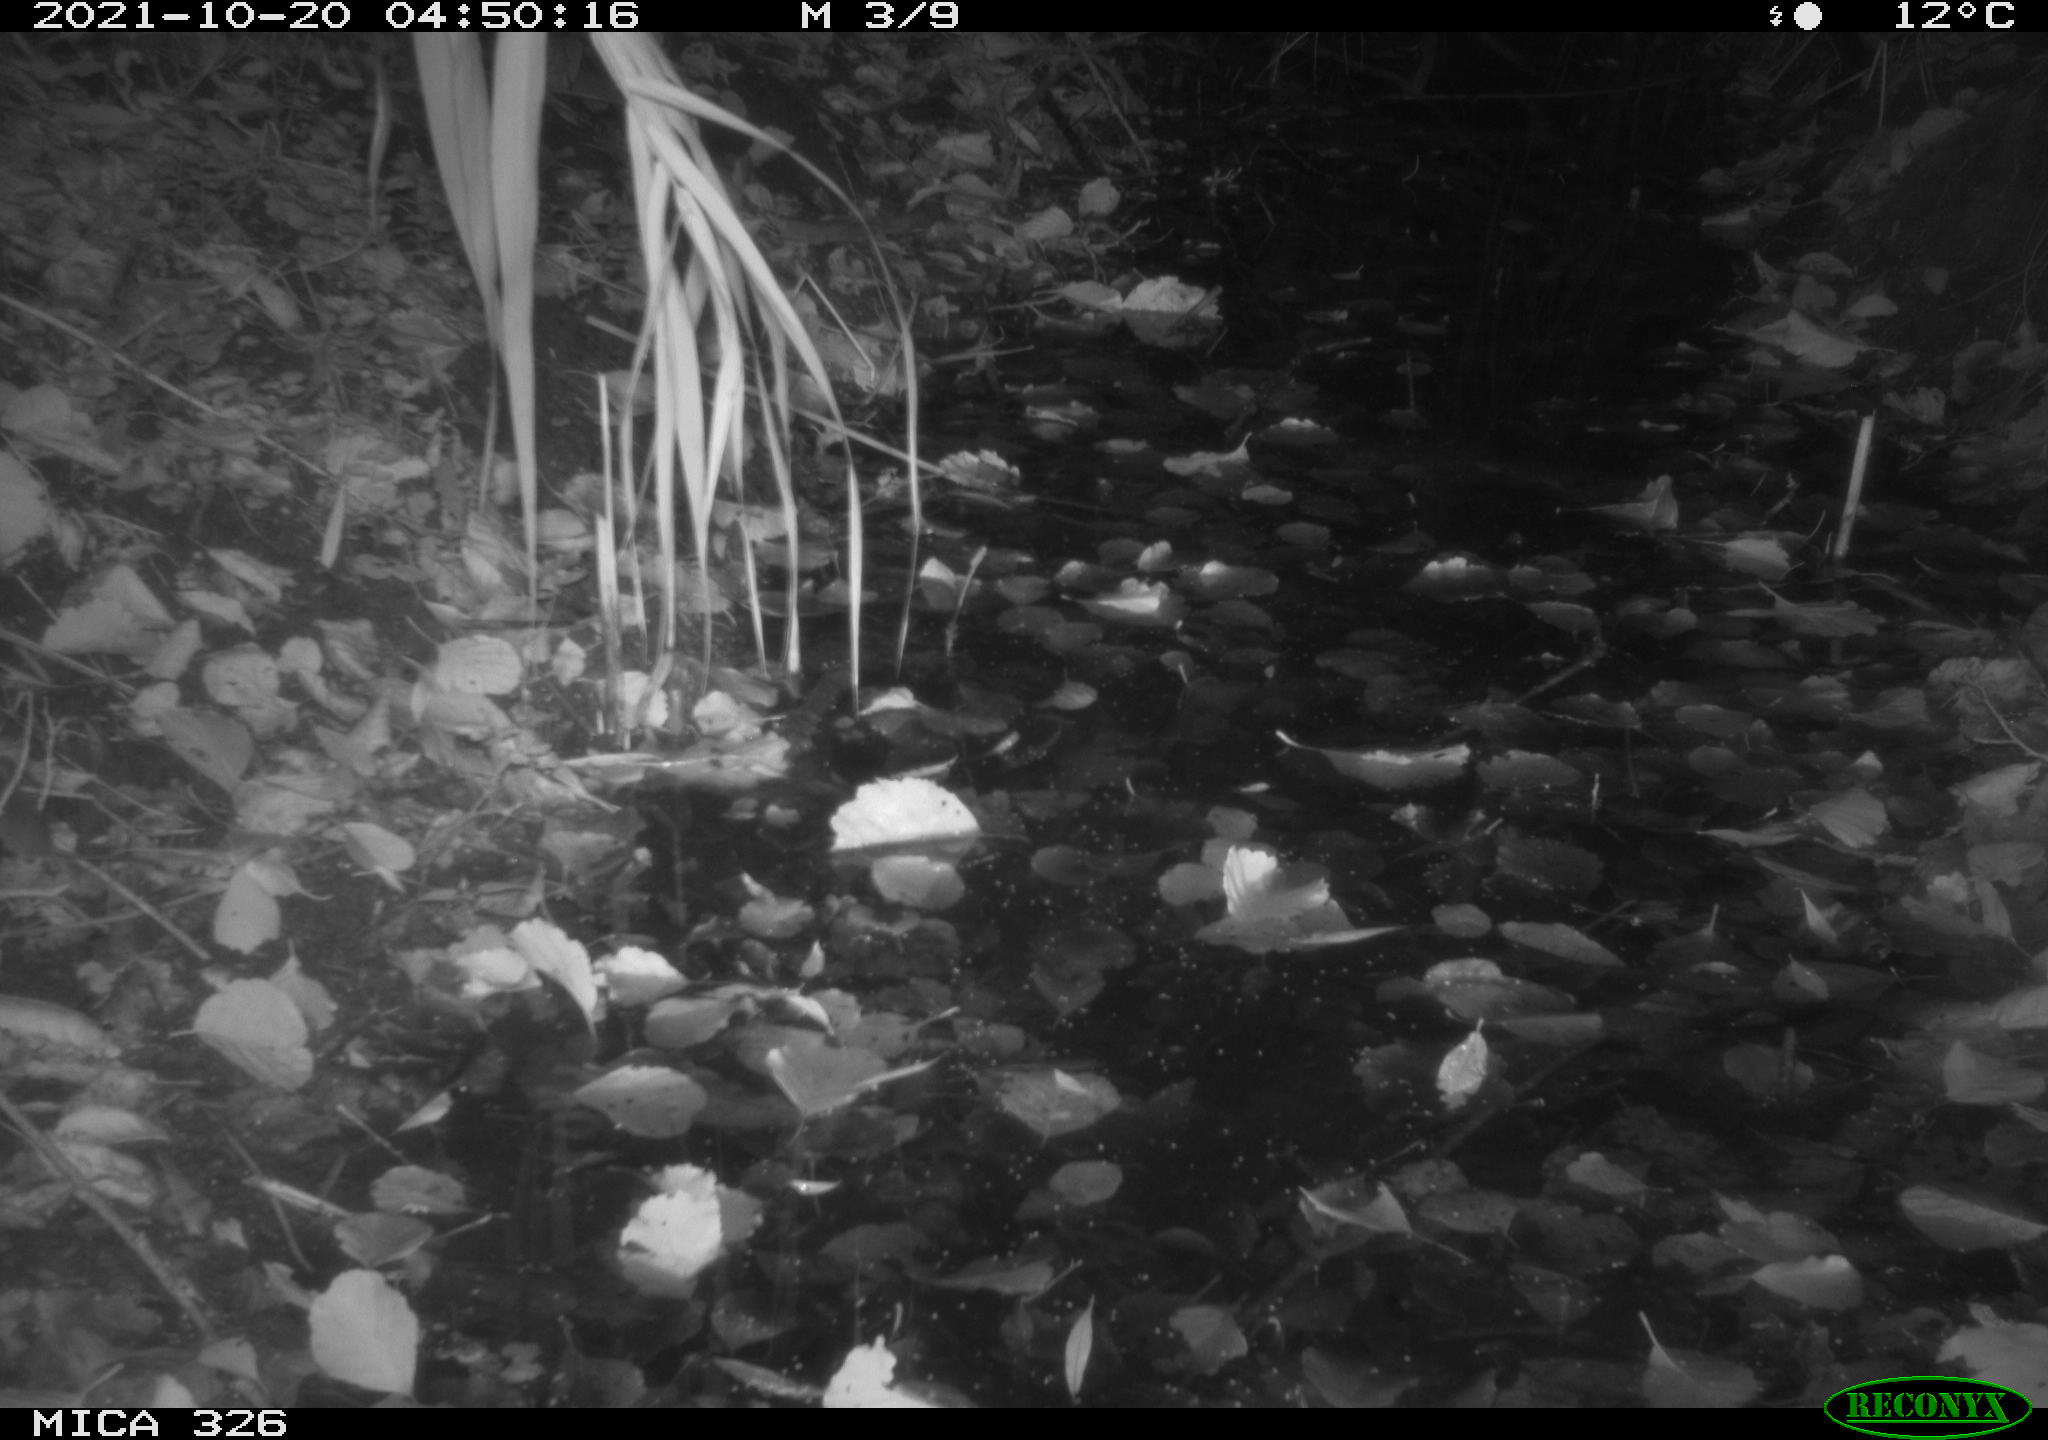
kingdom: Animalia
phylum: Chordata
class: Mammalia
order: Rodentia
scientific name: Rodentia
